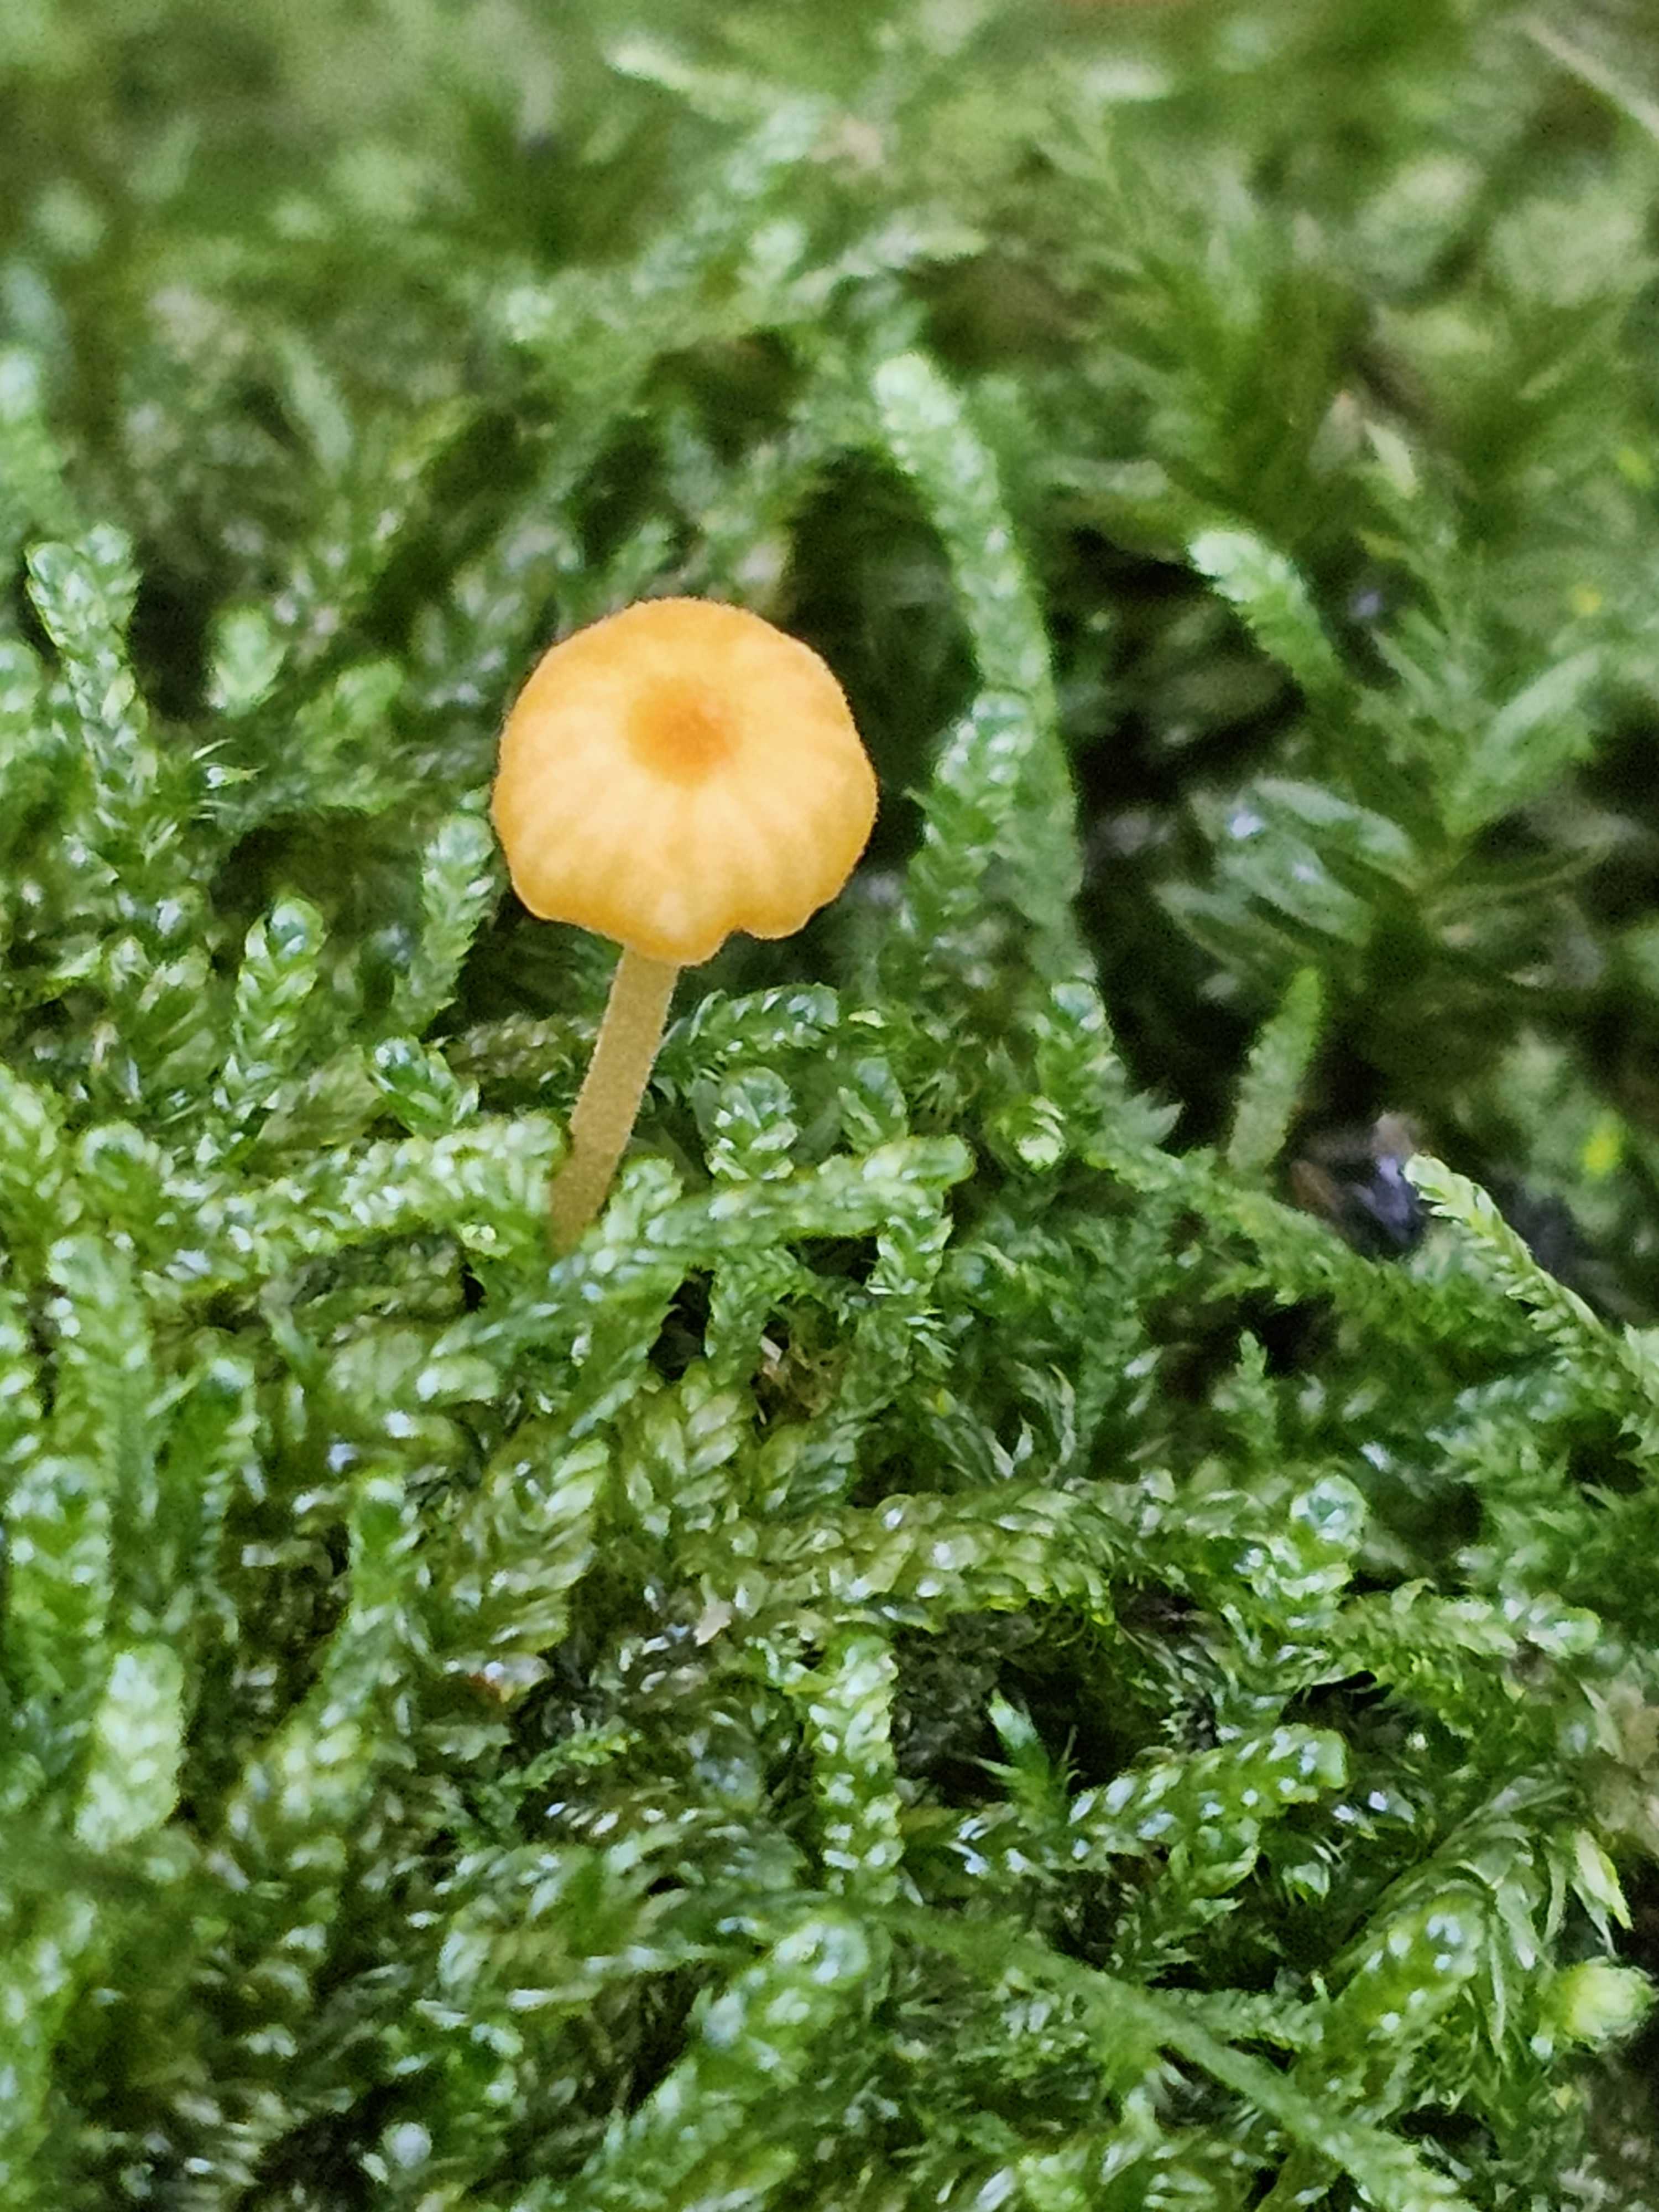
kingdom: Fungi
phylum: Basidiomycota
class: Agaricomycetes
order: Hymenochaetales
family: Rickenellaceae
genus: Rickenella
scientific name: Rickenella fibula
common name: orange mosnavlehat
